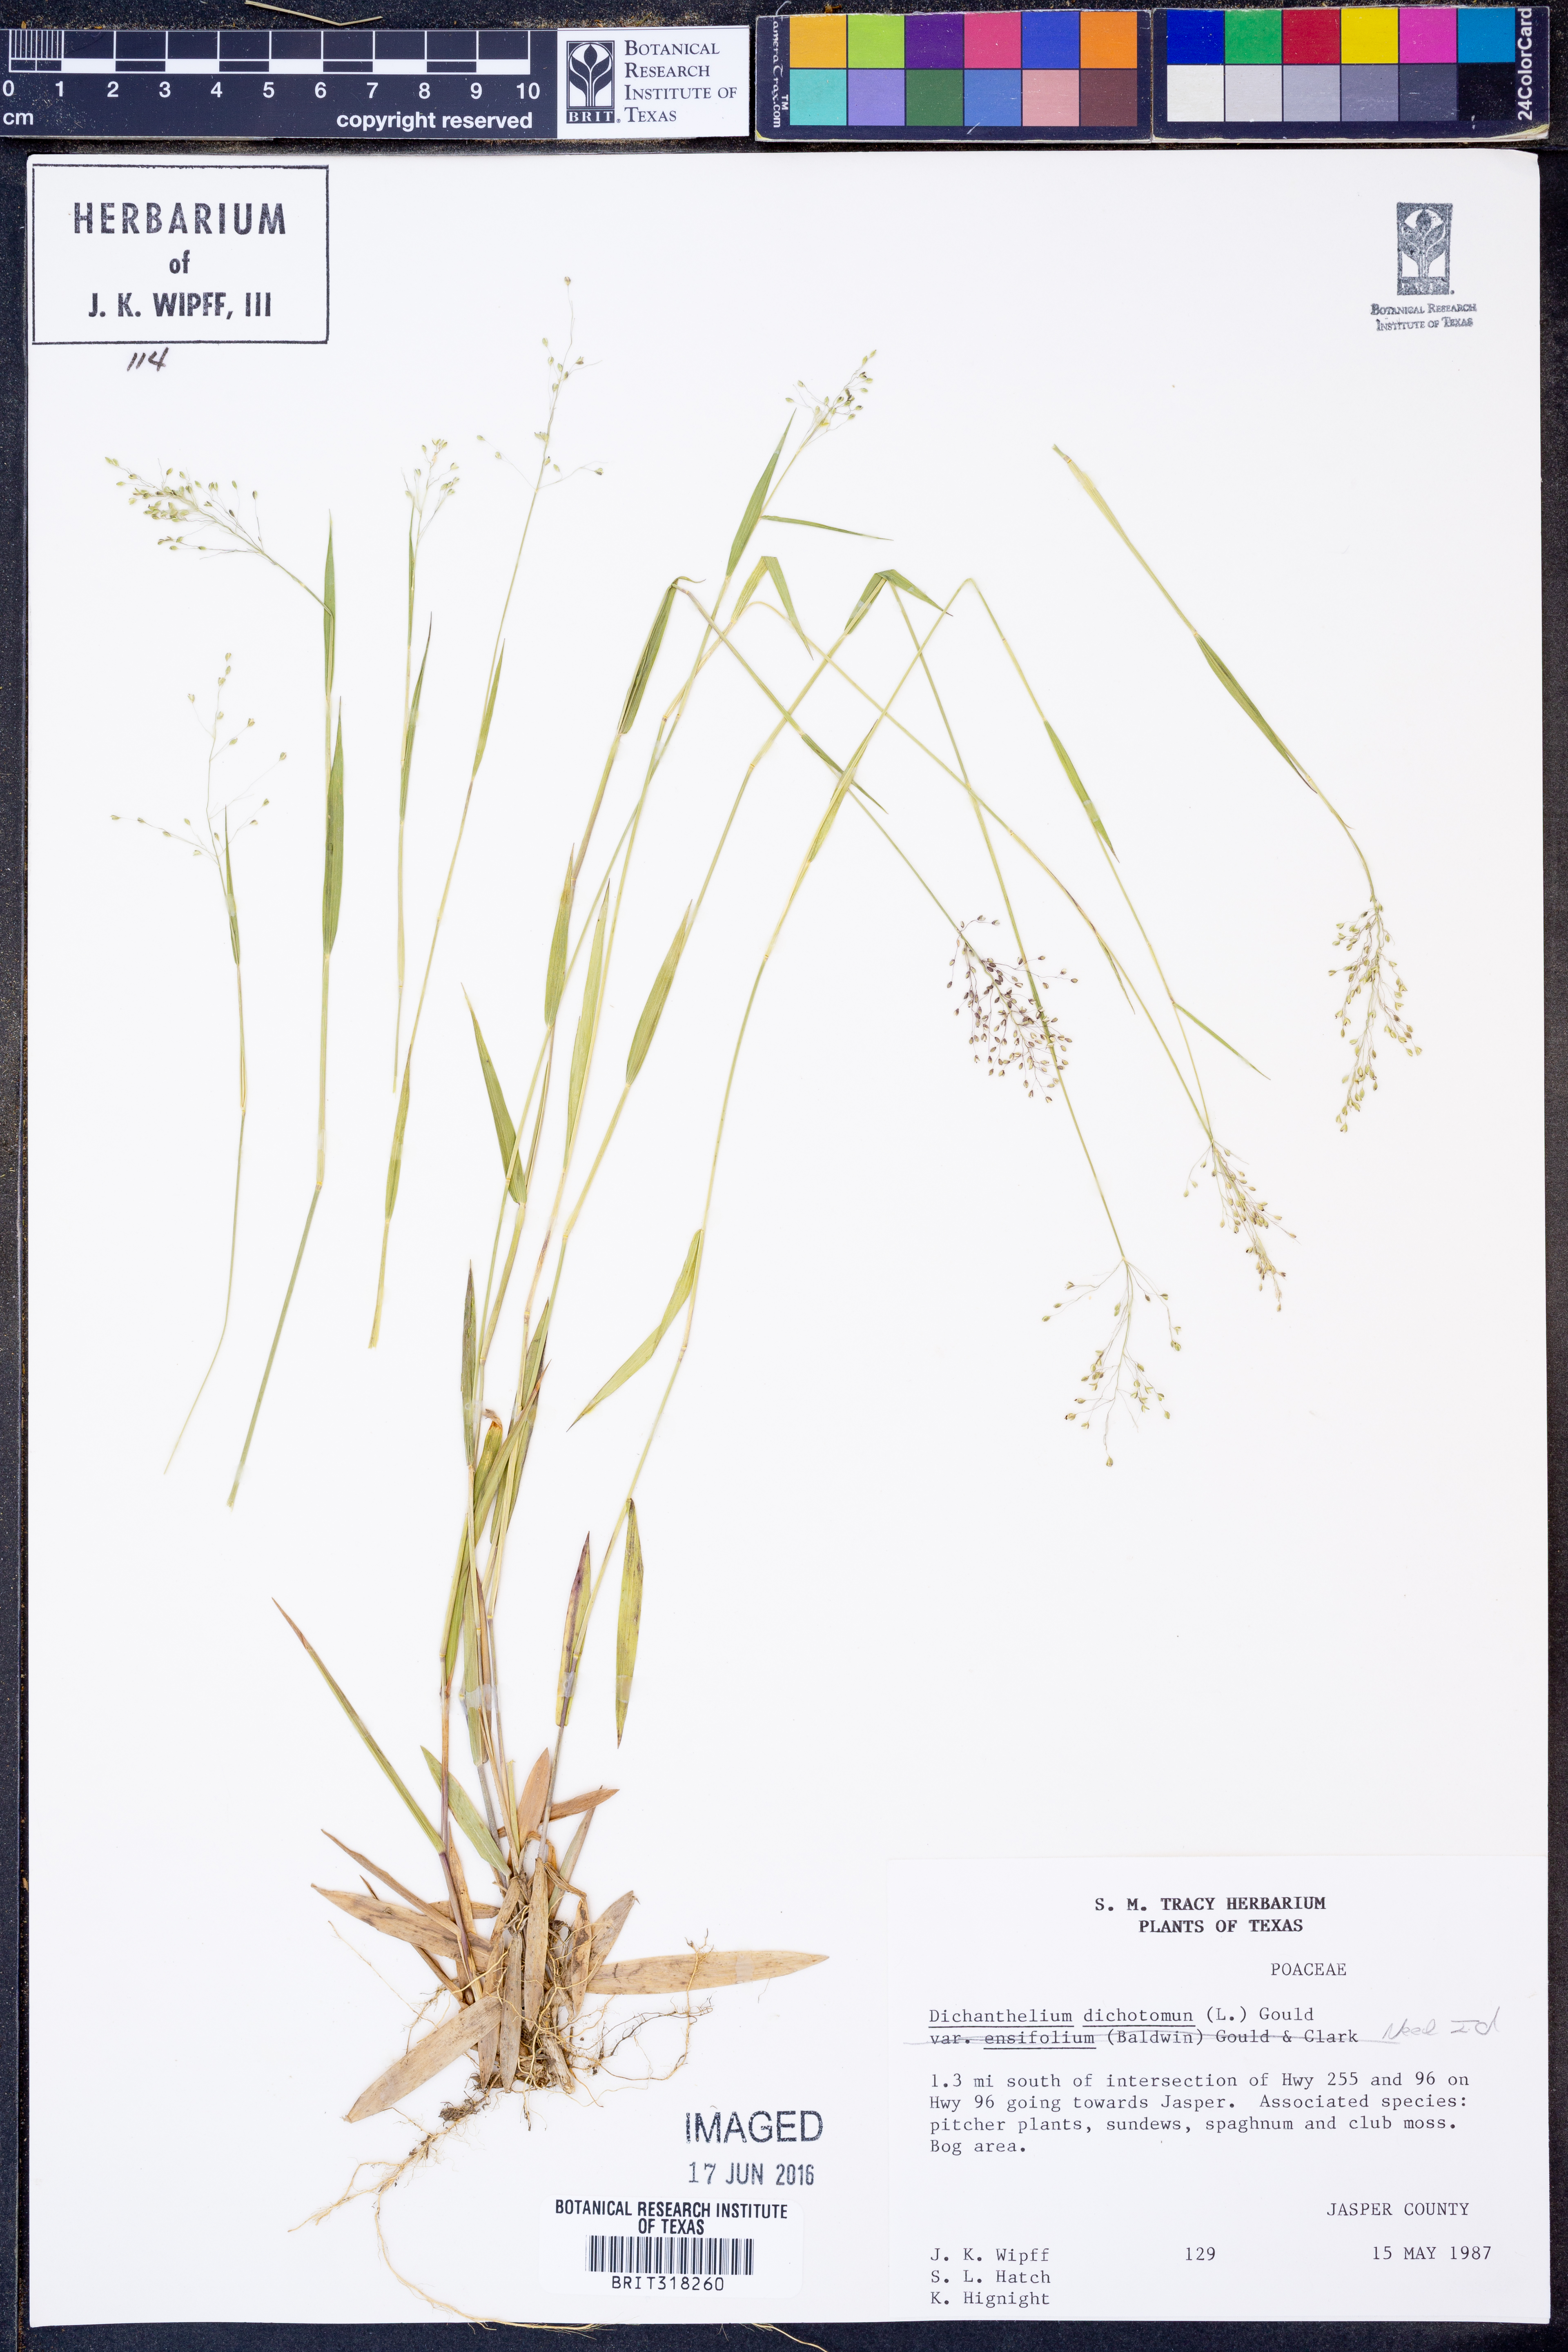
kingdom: Plantae
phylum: Tracheophyta
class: Liliopsida
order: Poales
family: Poaceae
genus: Dichanthelium
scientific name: Dichanthelium dichotomum
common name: Cypress panicgrass
